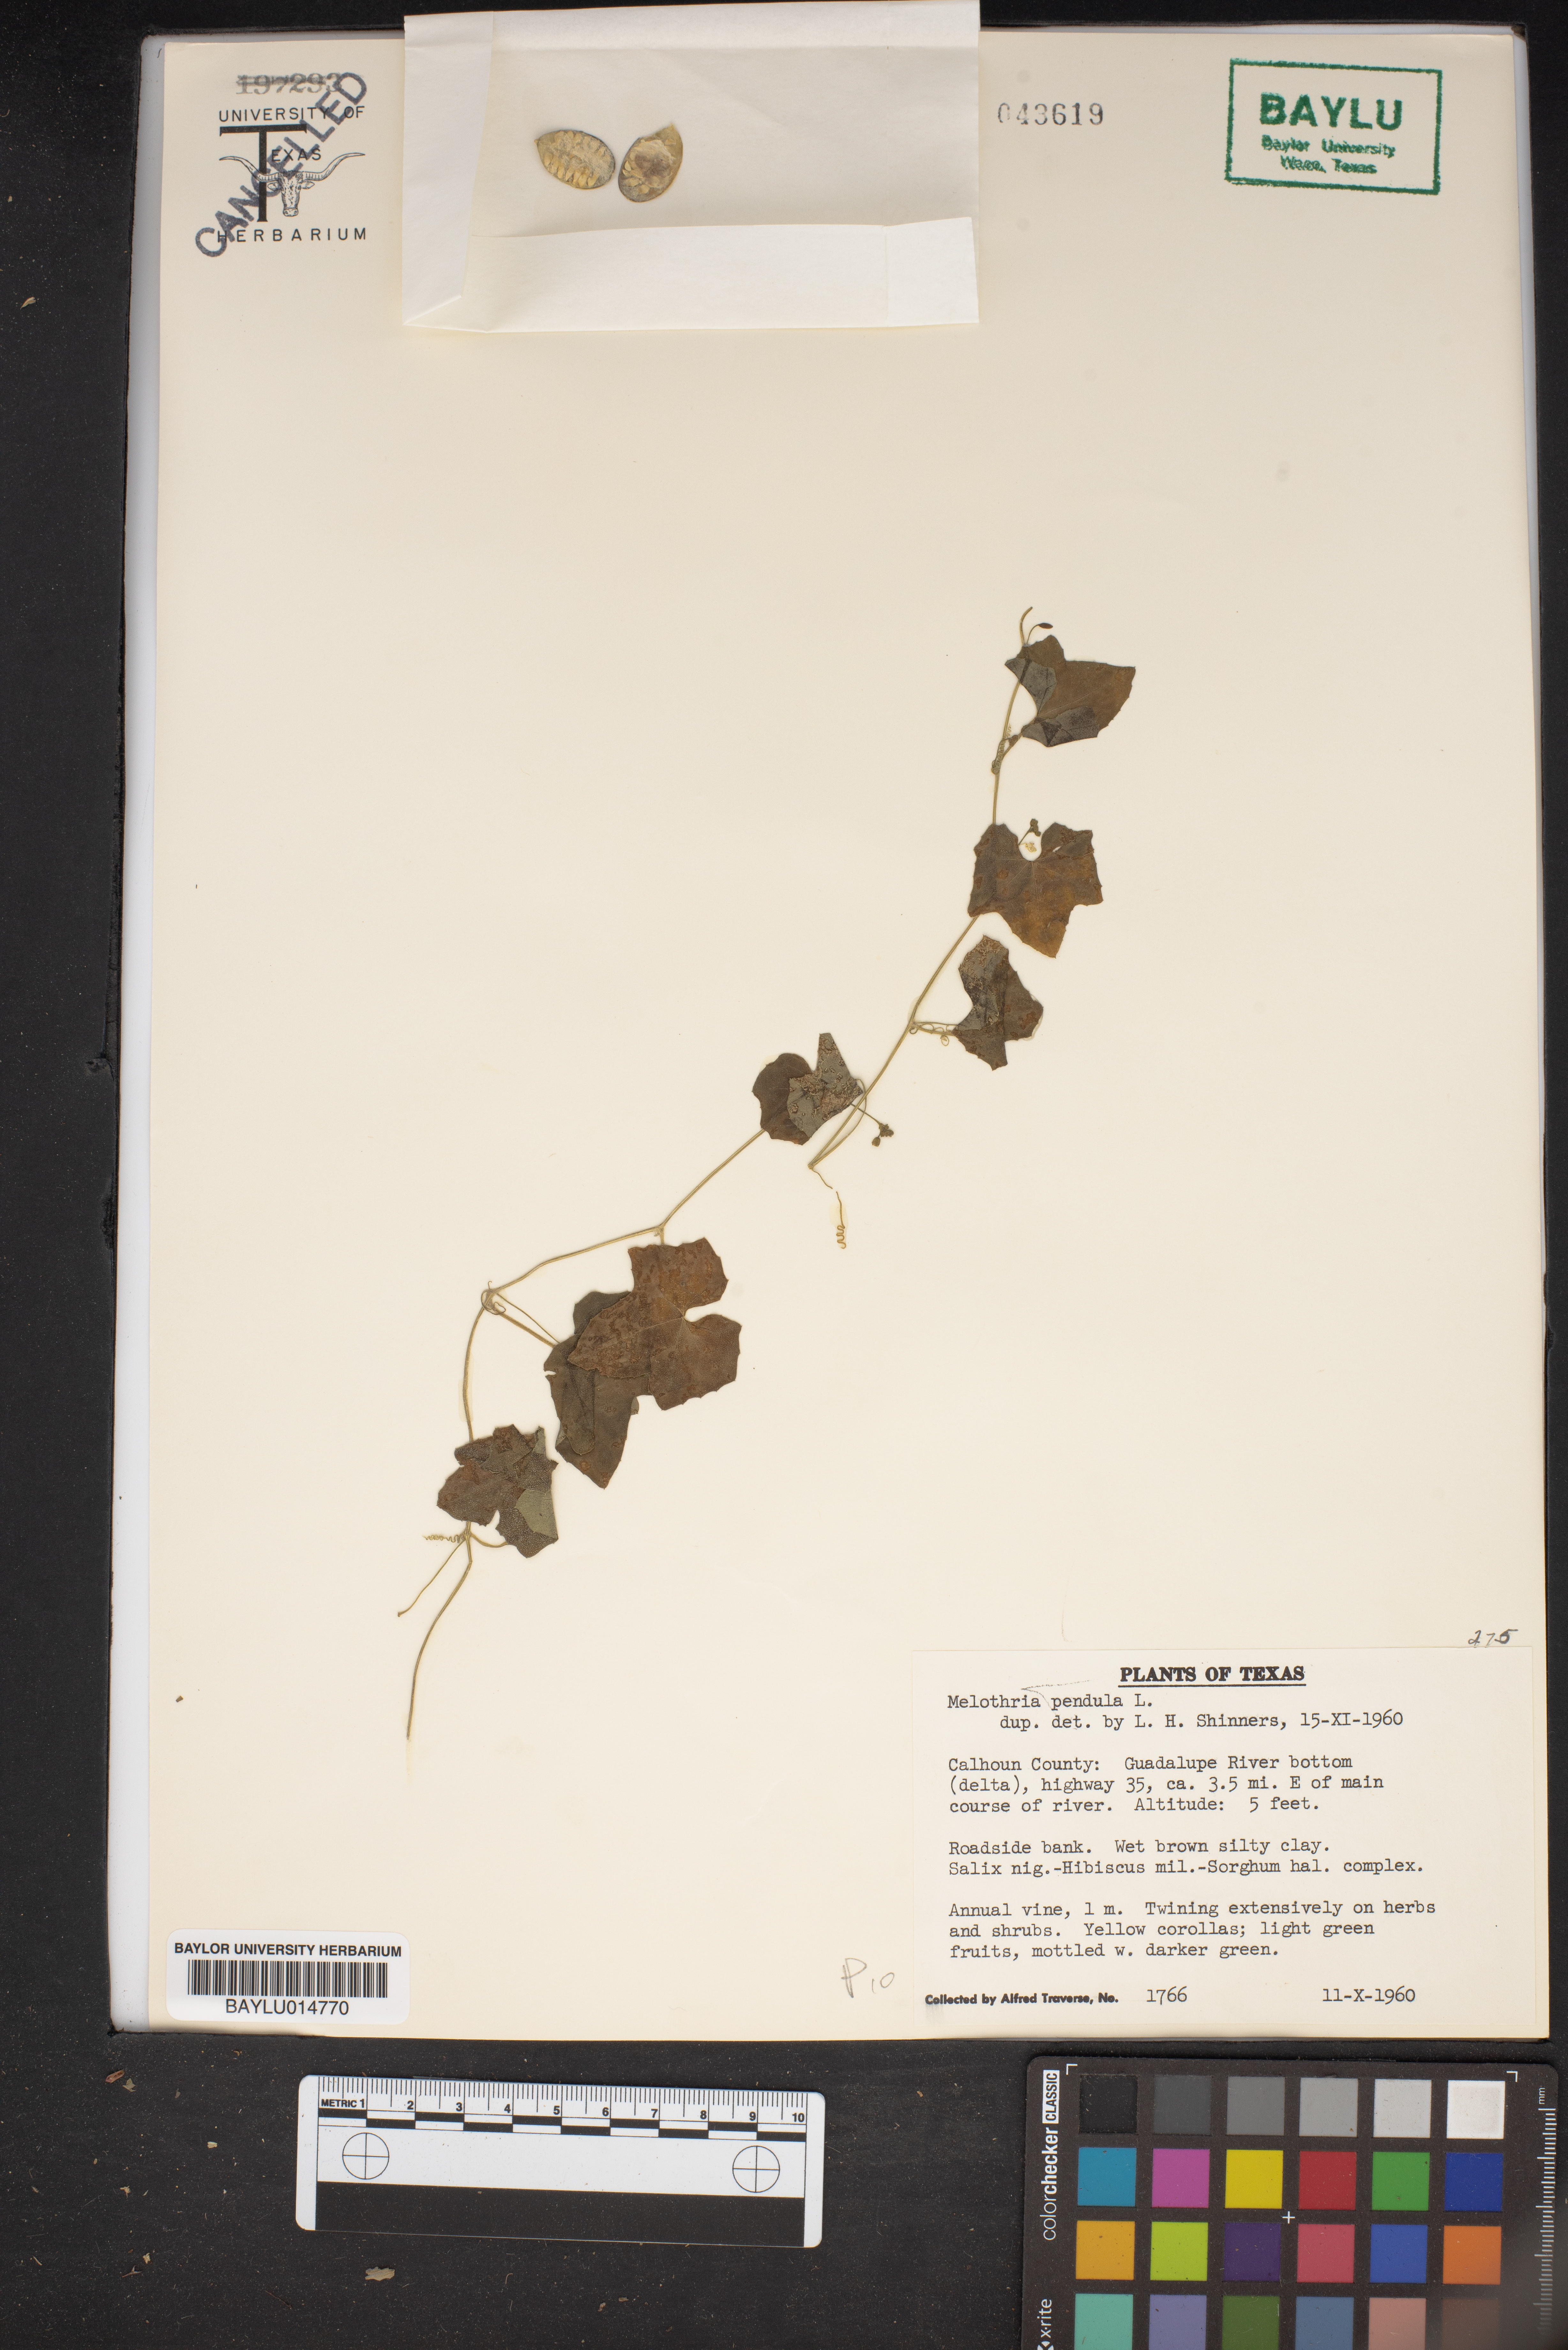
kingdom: Plantae
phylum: Tracheophyta
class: Magnoliopsida
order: Cucurbitales
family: Cucurbitaceae
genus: Melothria
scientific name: Melothria pendula
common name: Creeping-cucumber
